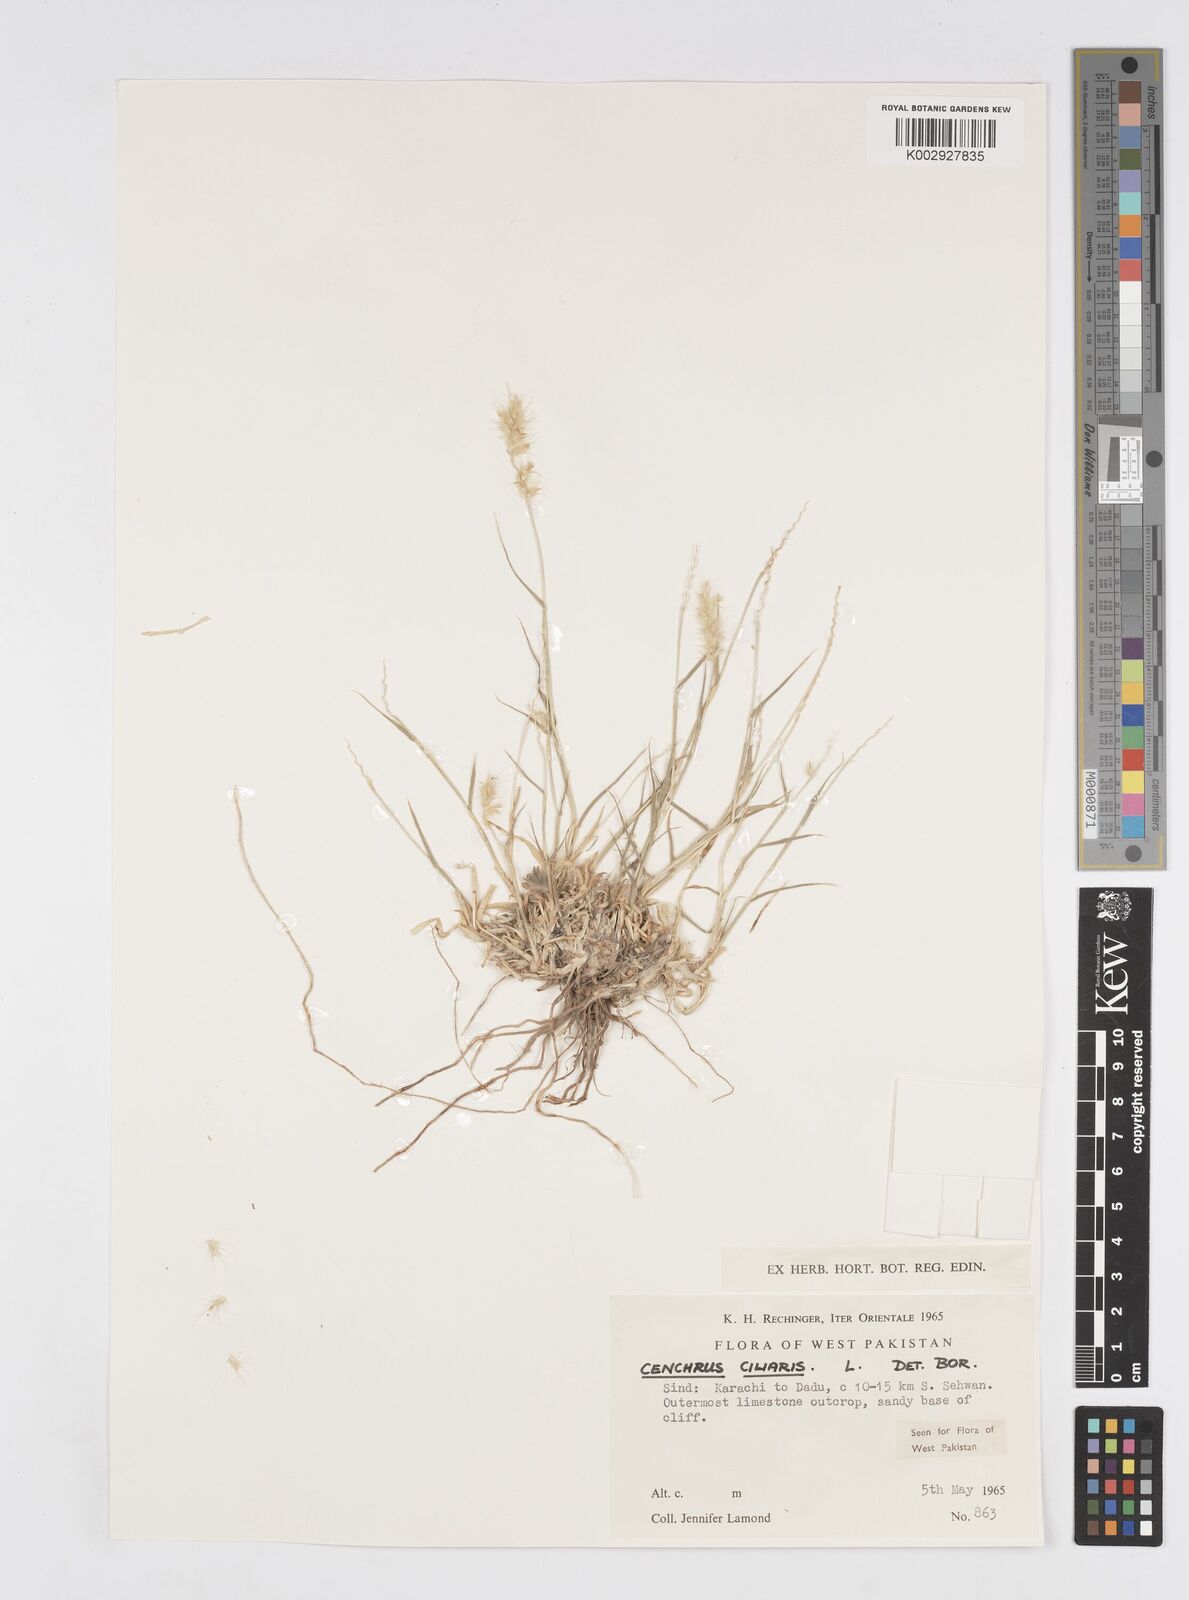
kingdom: Plantae
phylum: Tracheophyta
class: Liliopsida
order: Poales
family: Poaceae
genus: Cenchrus
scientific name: Cenchrus ciliaris
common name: Buffelgrass
